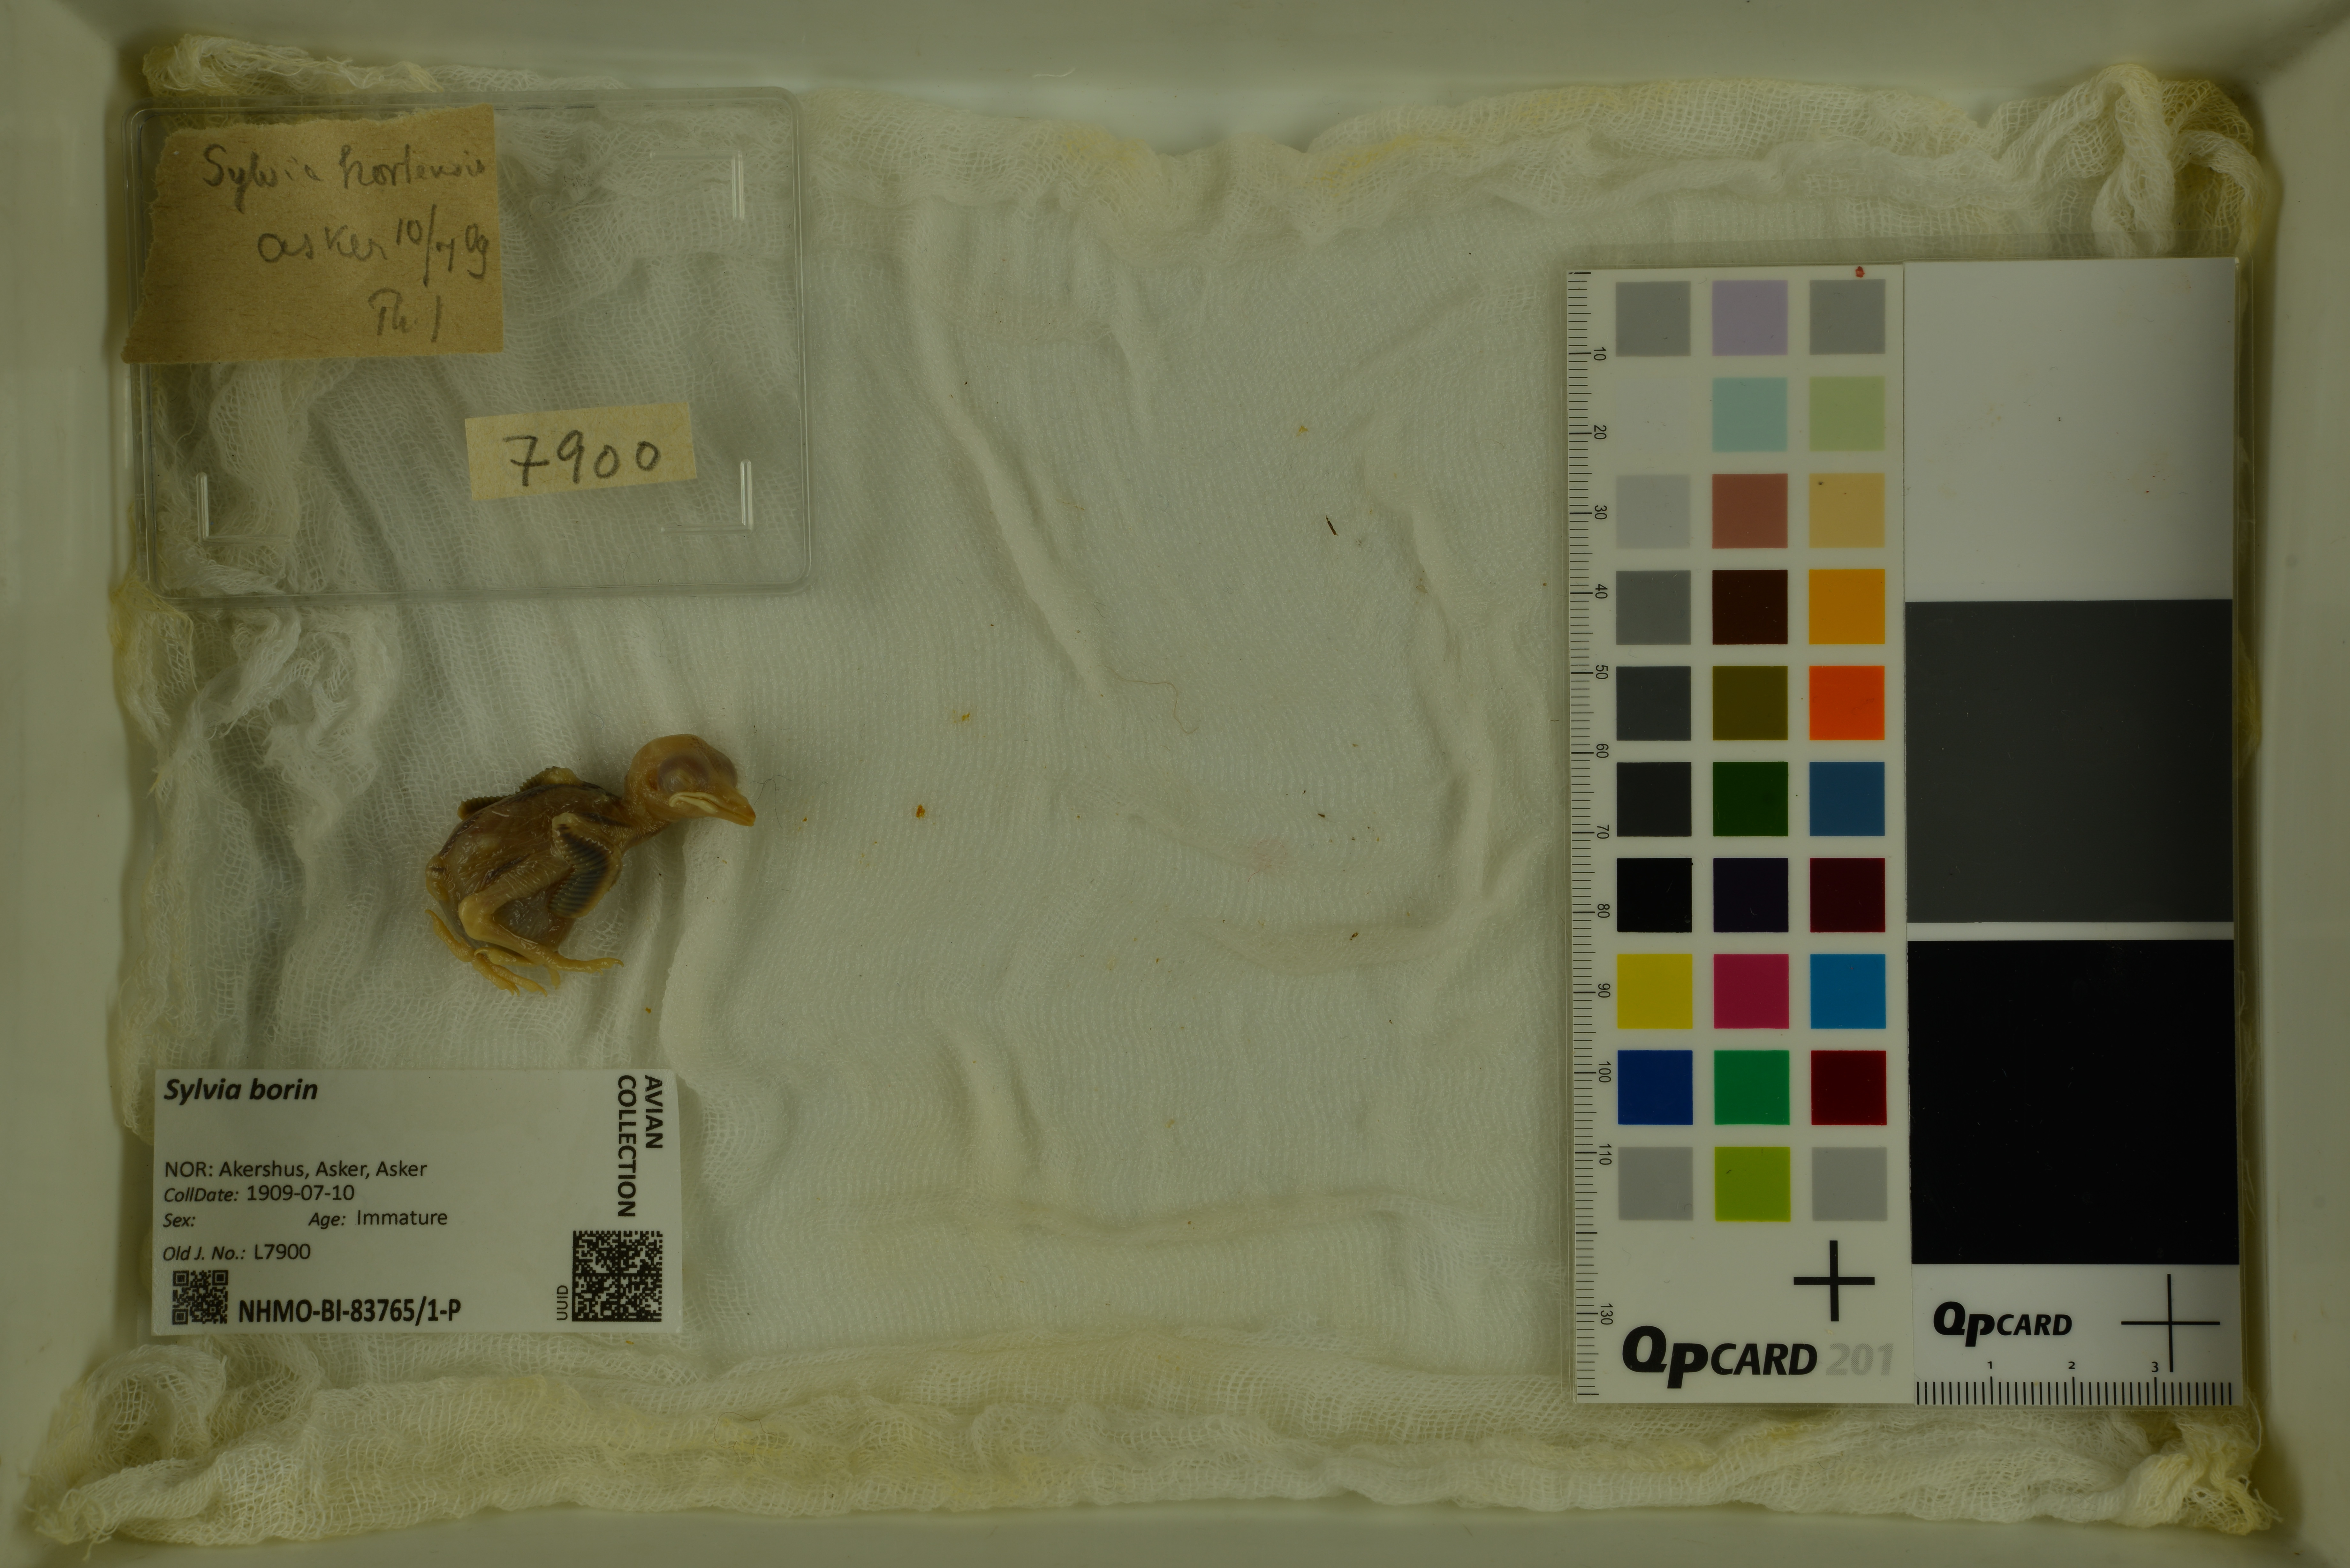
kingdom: Animalia
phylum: Chordata
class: Aves
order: Passeriformes
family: Sylviidae
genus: Sylvia
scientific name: Sylvia borin
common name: Garden warbler
